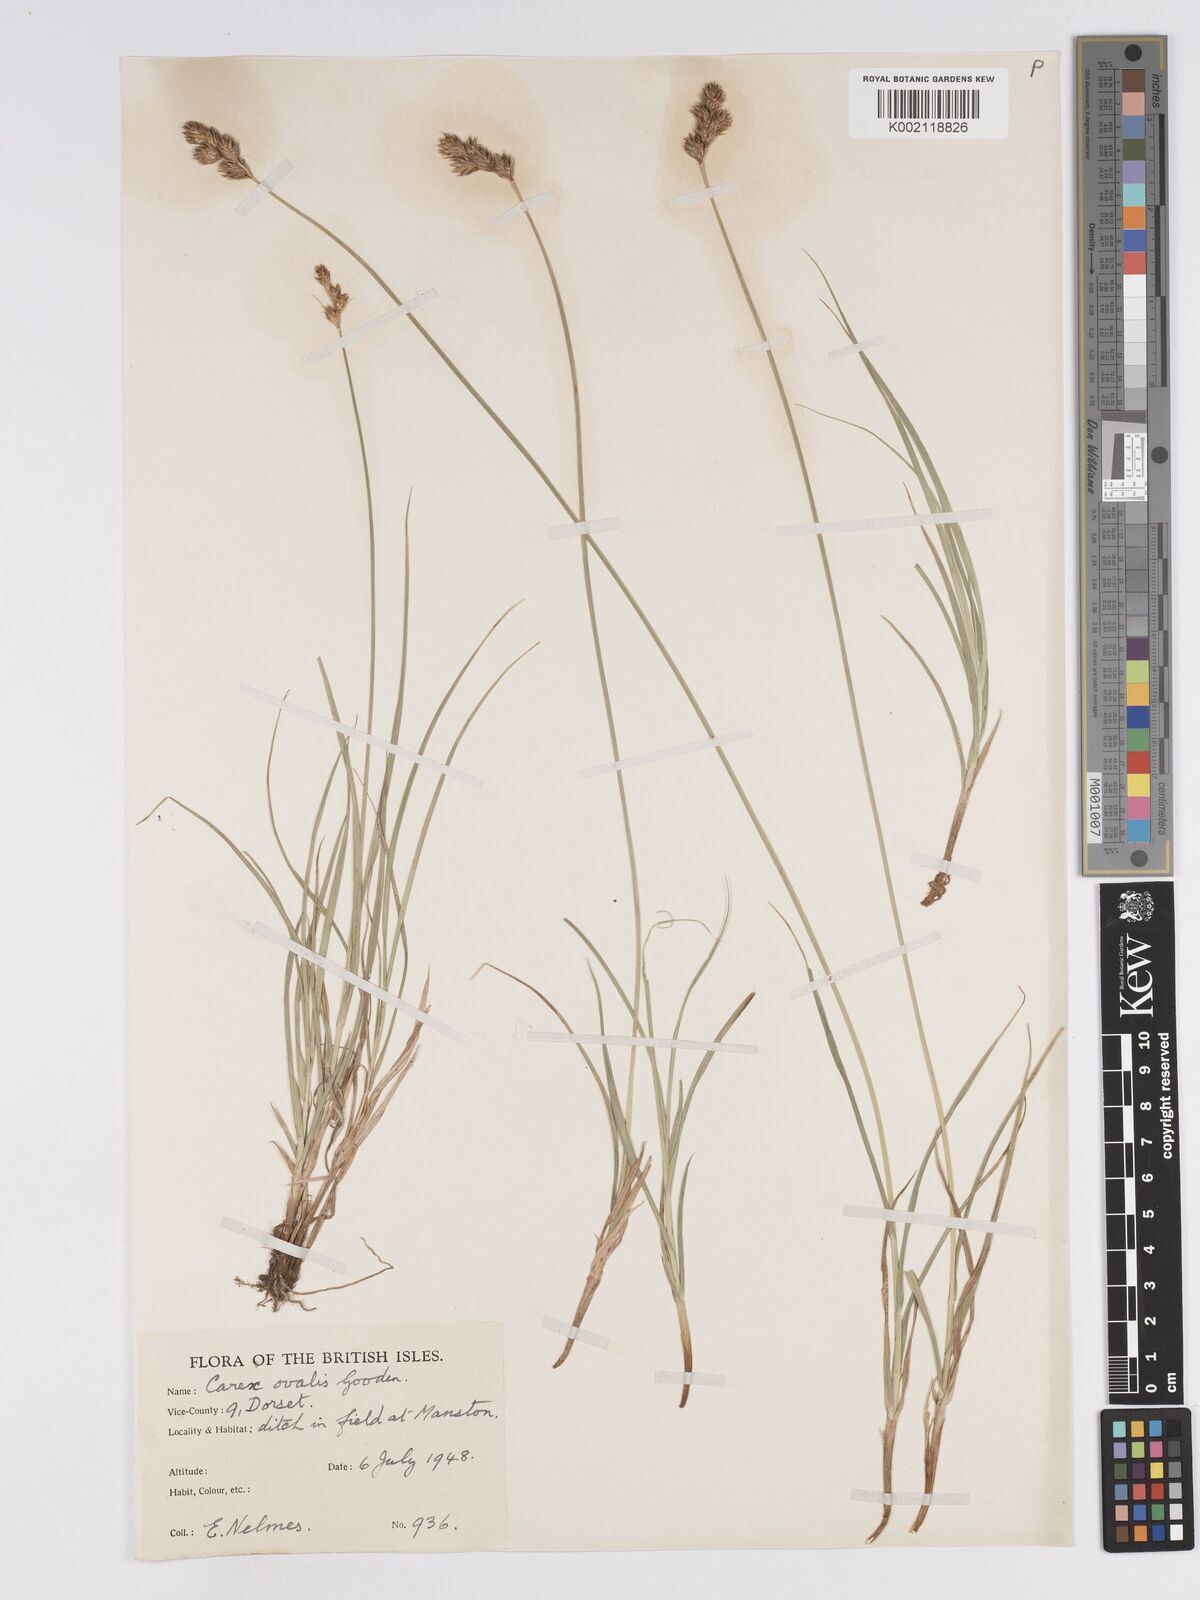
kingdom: Plantae
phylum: Tracheophyta
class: Liliopsida
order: Poales
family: Cyperaceae
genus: Carex
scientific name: Carex leporina
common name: Oval sedge
